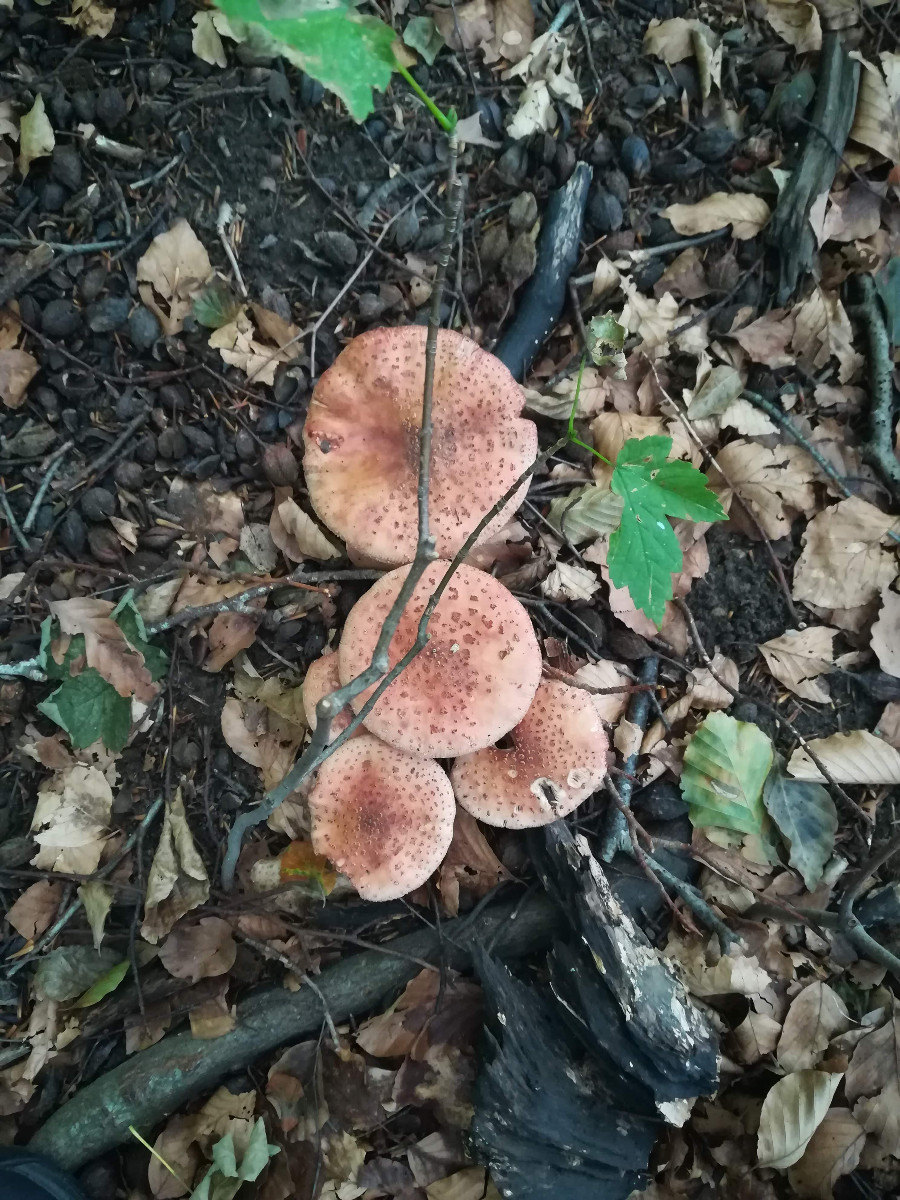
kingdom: Fungi
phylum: Basidiomycota
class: Agaricomycetes
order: Agaricales
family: Amanitaceae
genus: Amanita
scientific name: Amanita rubescens
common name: rødmende fluesvamp
